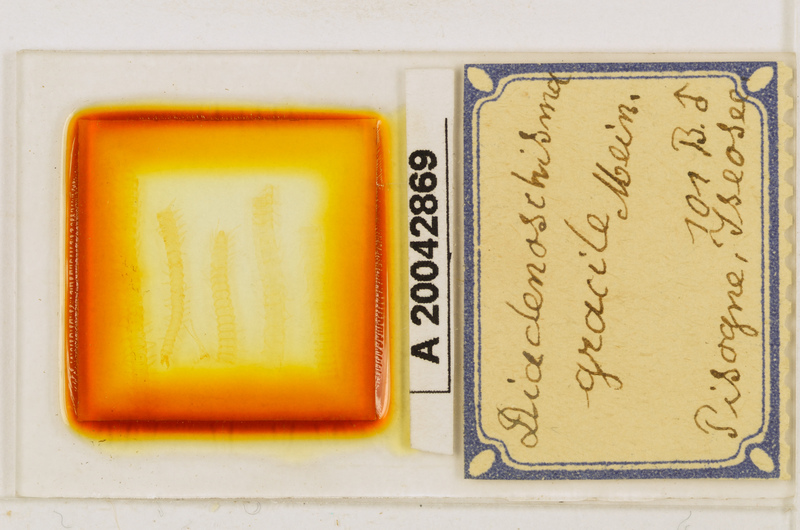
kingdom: Animalia
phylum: Arthropoda
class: Chilopoda
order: Geophilomorpha
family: Himantariidae
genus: Stigmatogaster
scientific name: Stigmatogaster
